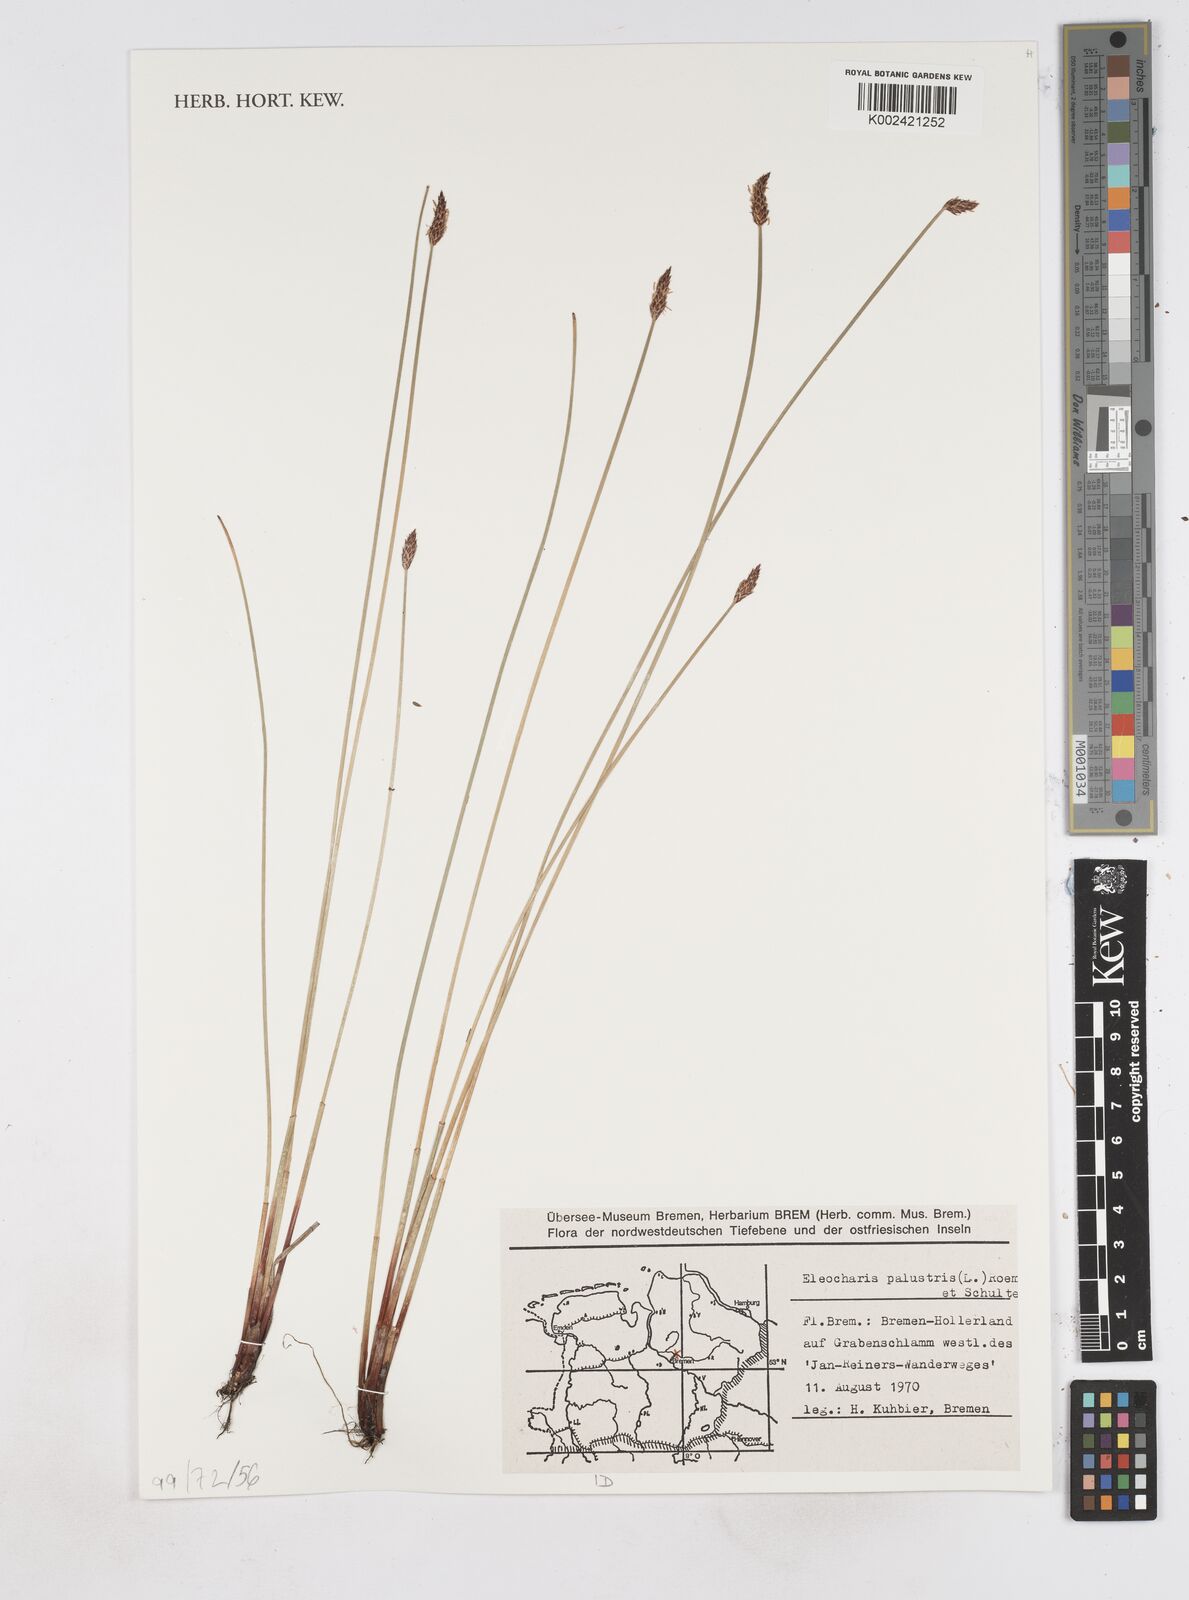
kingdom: Plantae
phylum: Tracheophyta
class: Liliopsida
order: Poales
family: Cyperaceae
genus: Eleocharis
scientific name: Eleocharis palustris
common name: Common spike-rush
